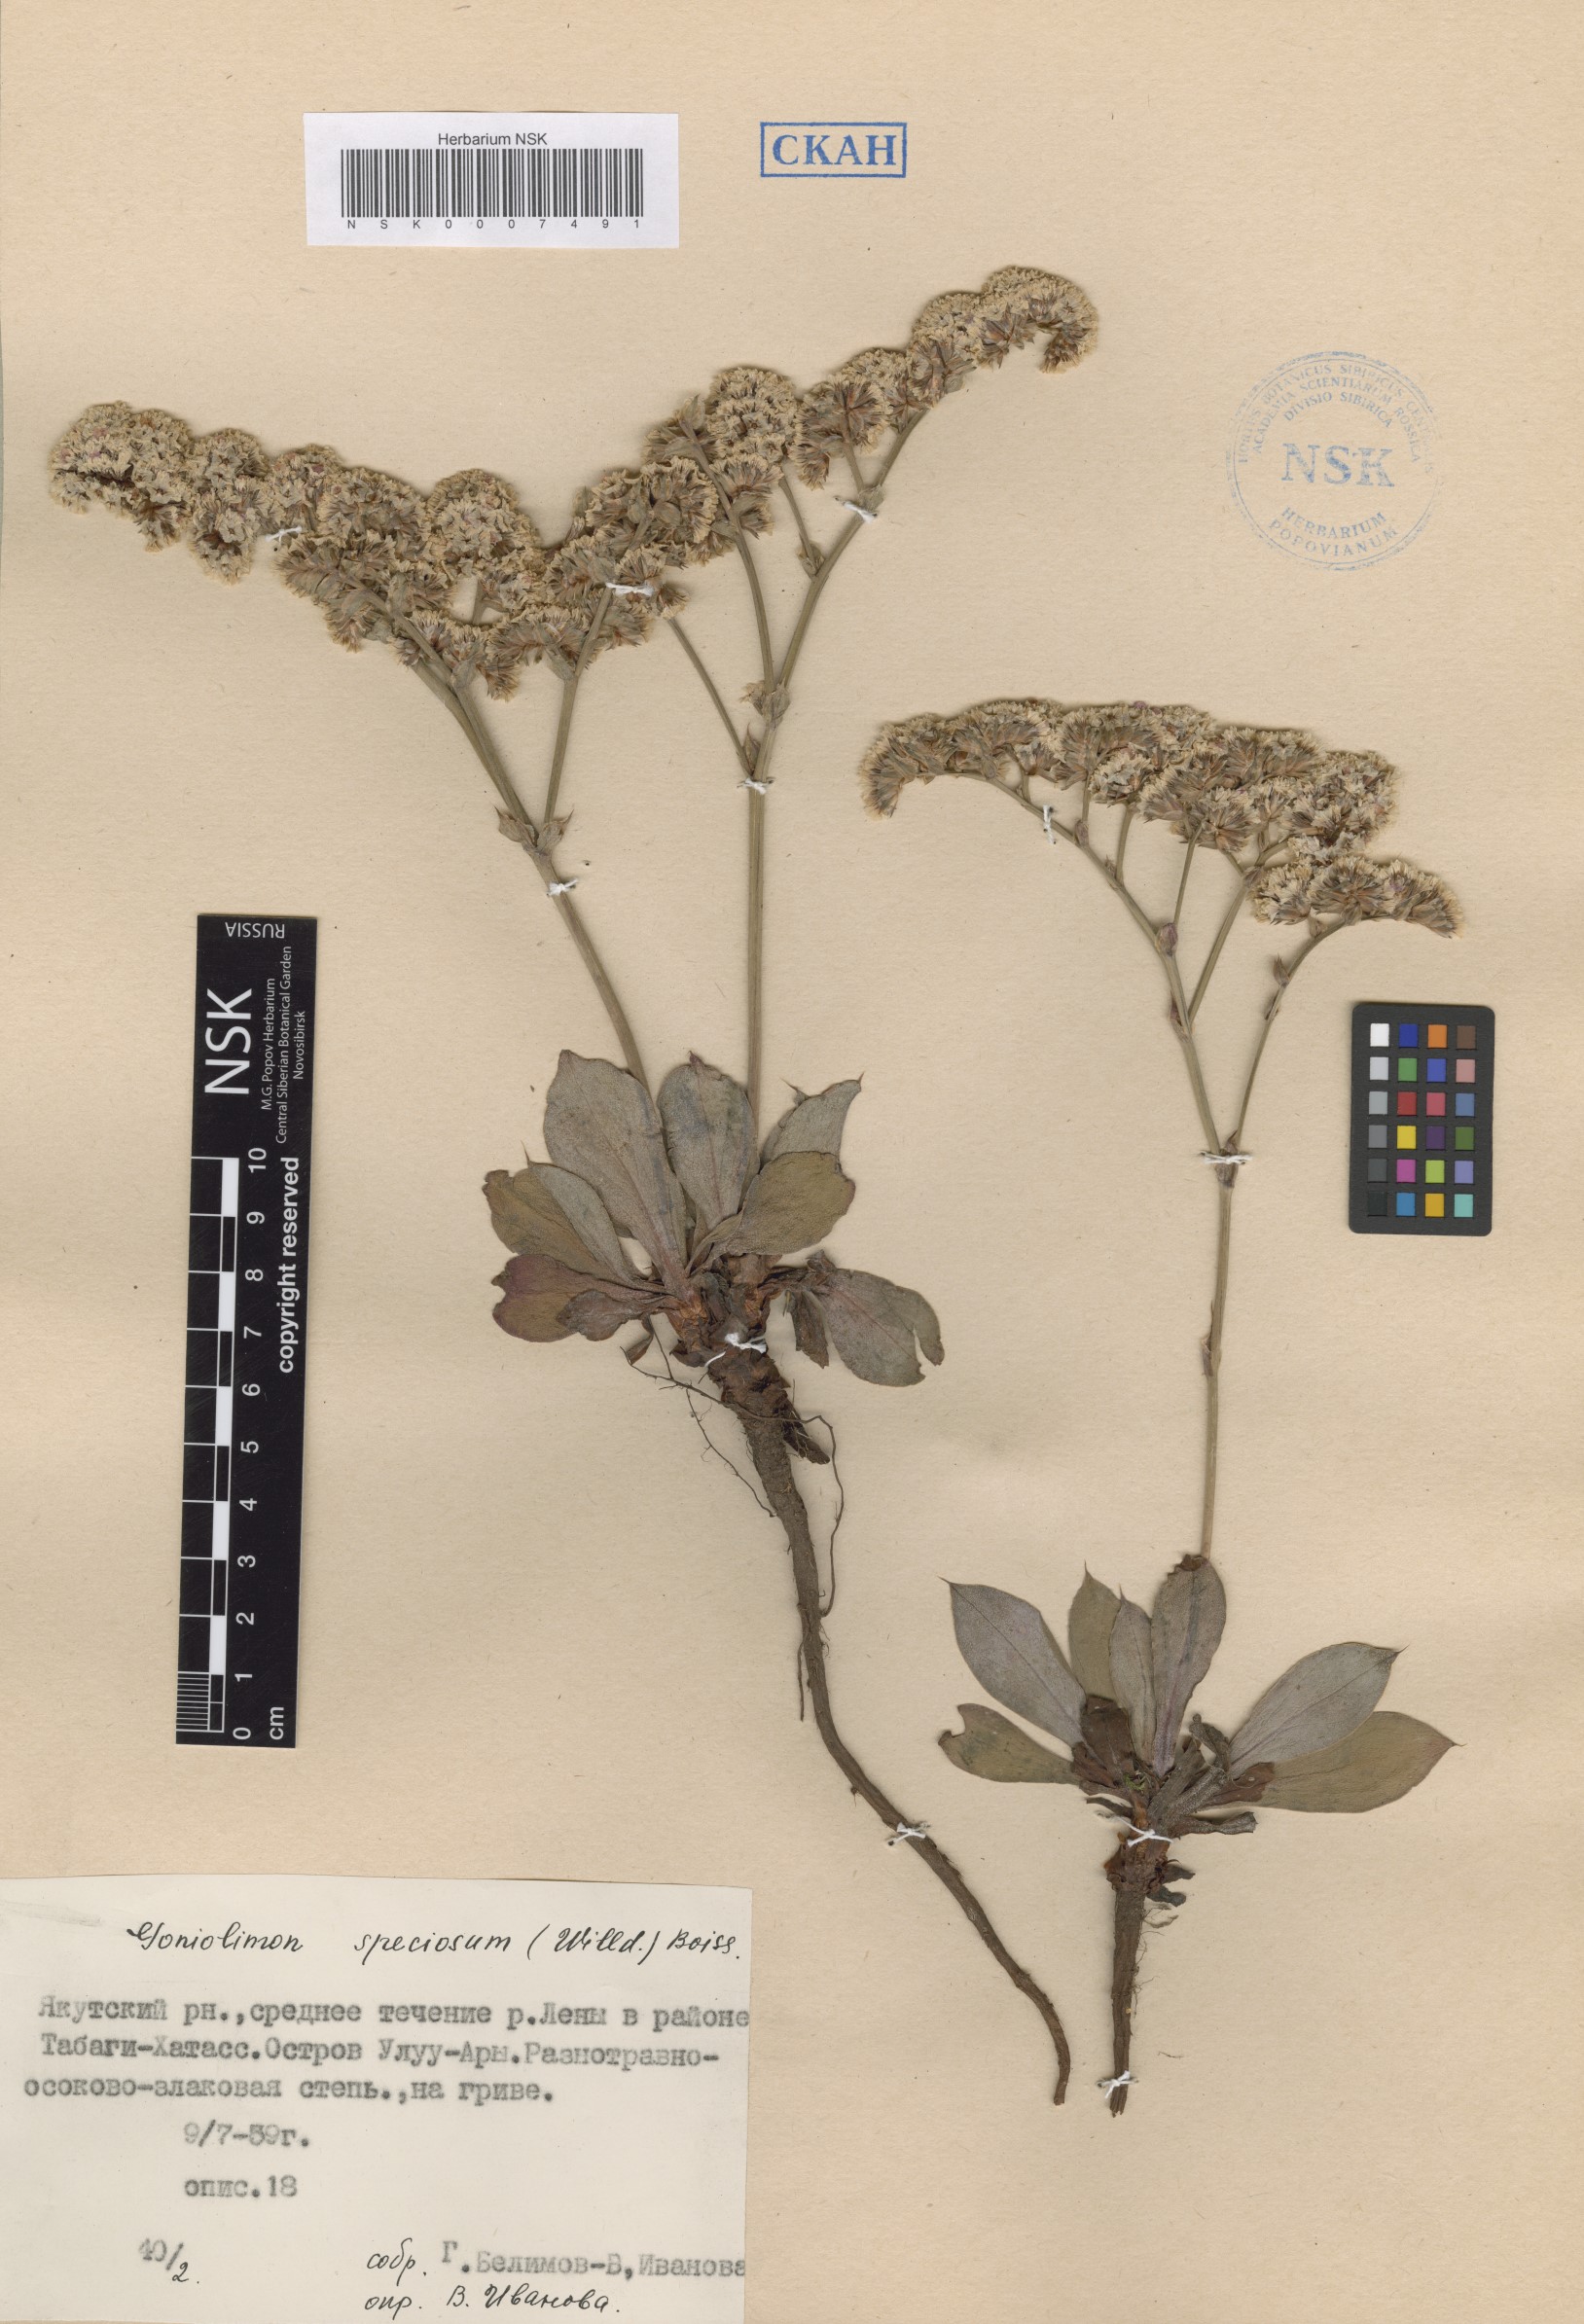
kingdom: Plantae
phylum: Tracheophyta
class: Magnoliopsida
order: Caryophyllales
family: Plumbaginaceae
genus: Goniolimon
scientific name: Goniolimon speciosum
